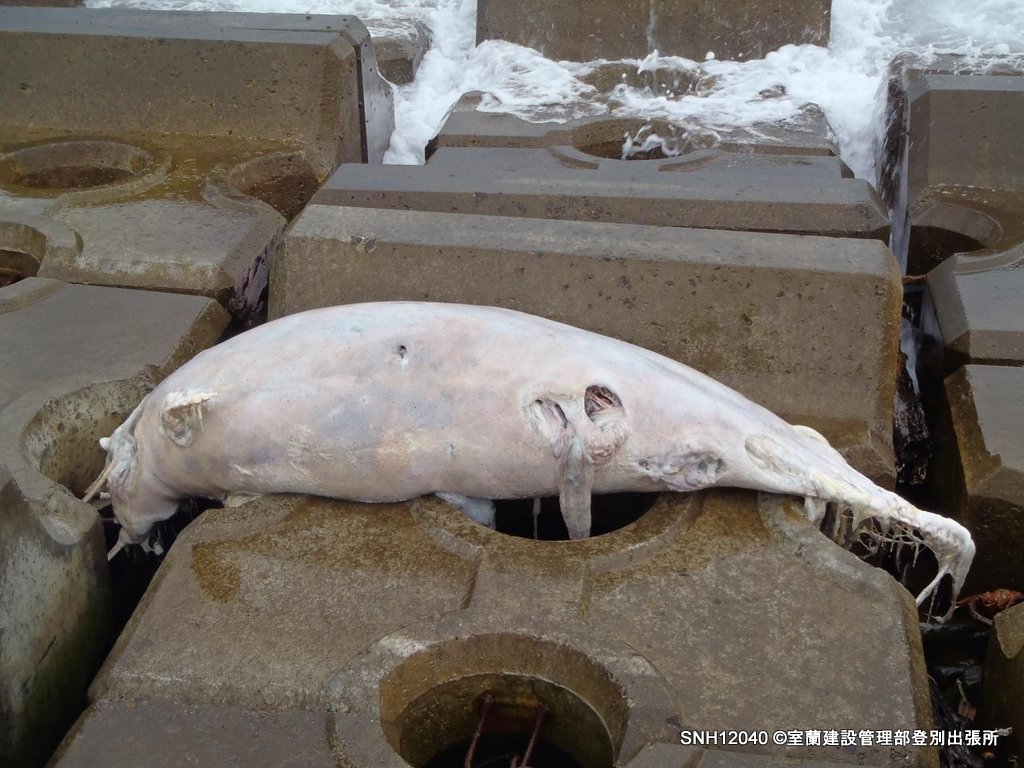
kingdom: Animalia
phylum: Chordata
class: Mammalia
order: Cetacea
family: Delphinidae
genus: Lagenorhynchus
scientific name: Lagenorhynchus obliquidens
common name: Pacific white-sided dolphin
